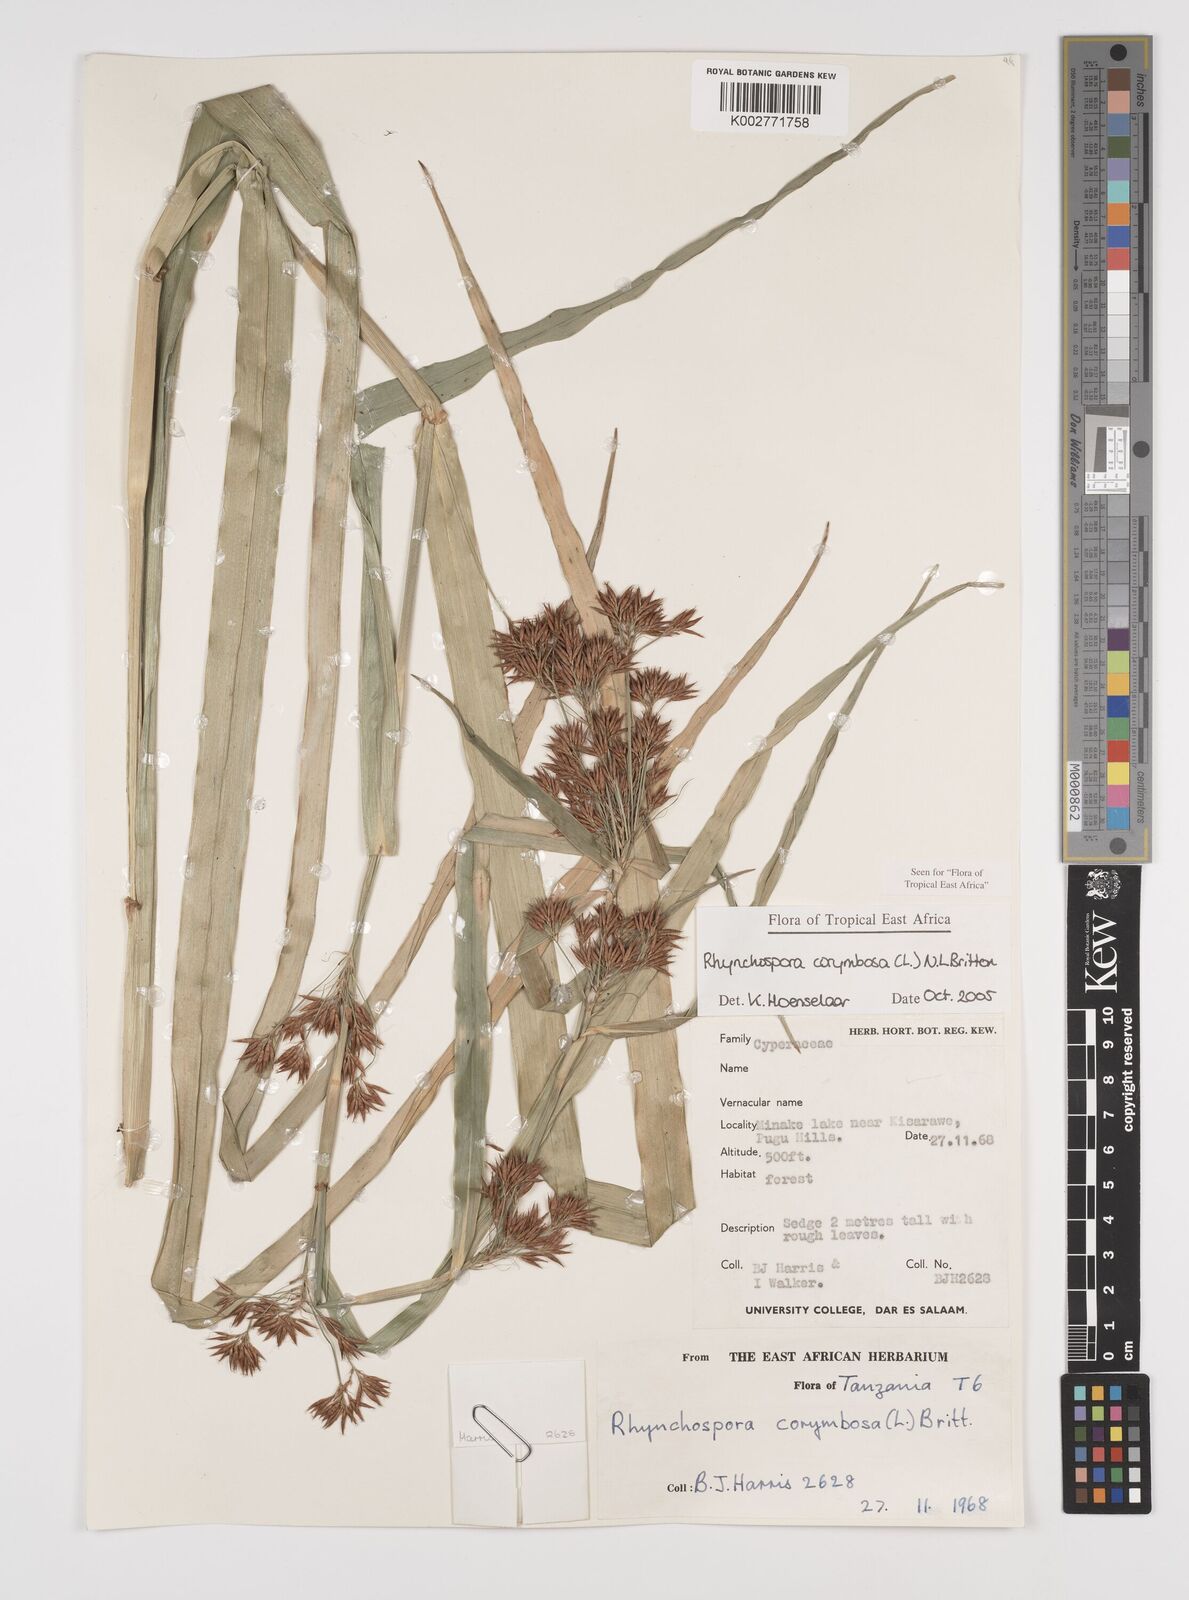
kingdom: Plantae
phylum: Tracheophyta
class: Liliopsida
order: Poales
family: Cyperaceae
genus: Rhynchospora
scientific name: Rhynchospora corymbosa
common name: Golden beak sedge
